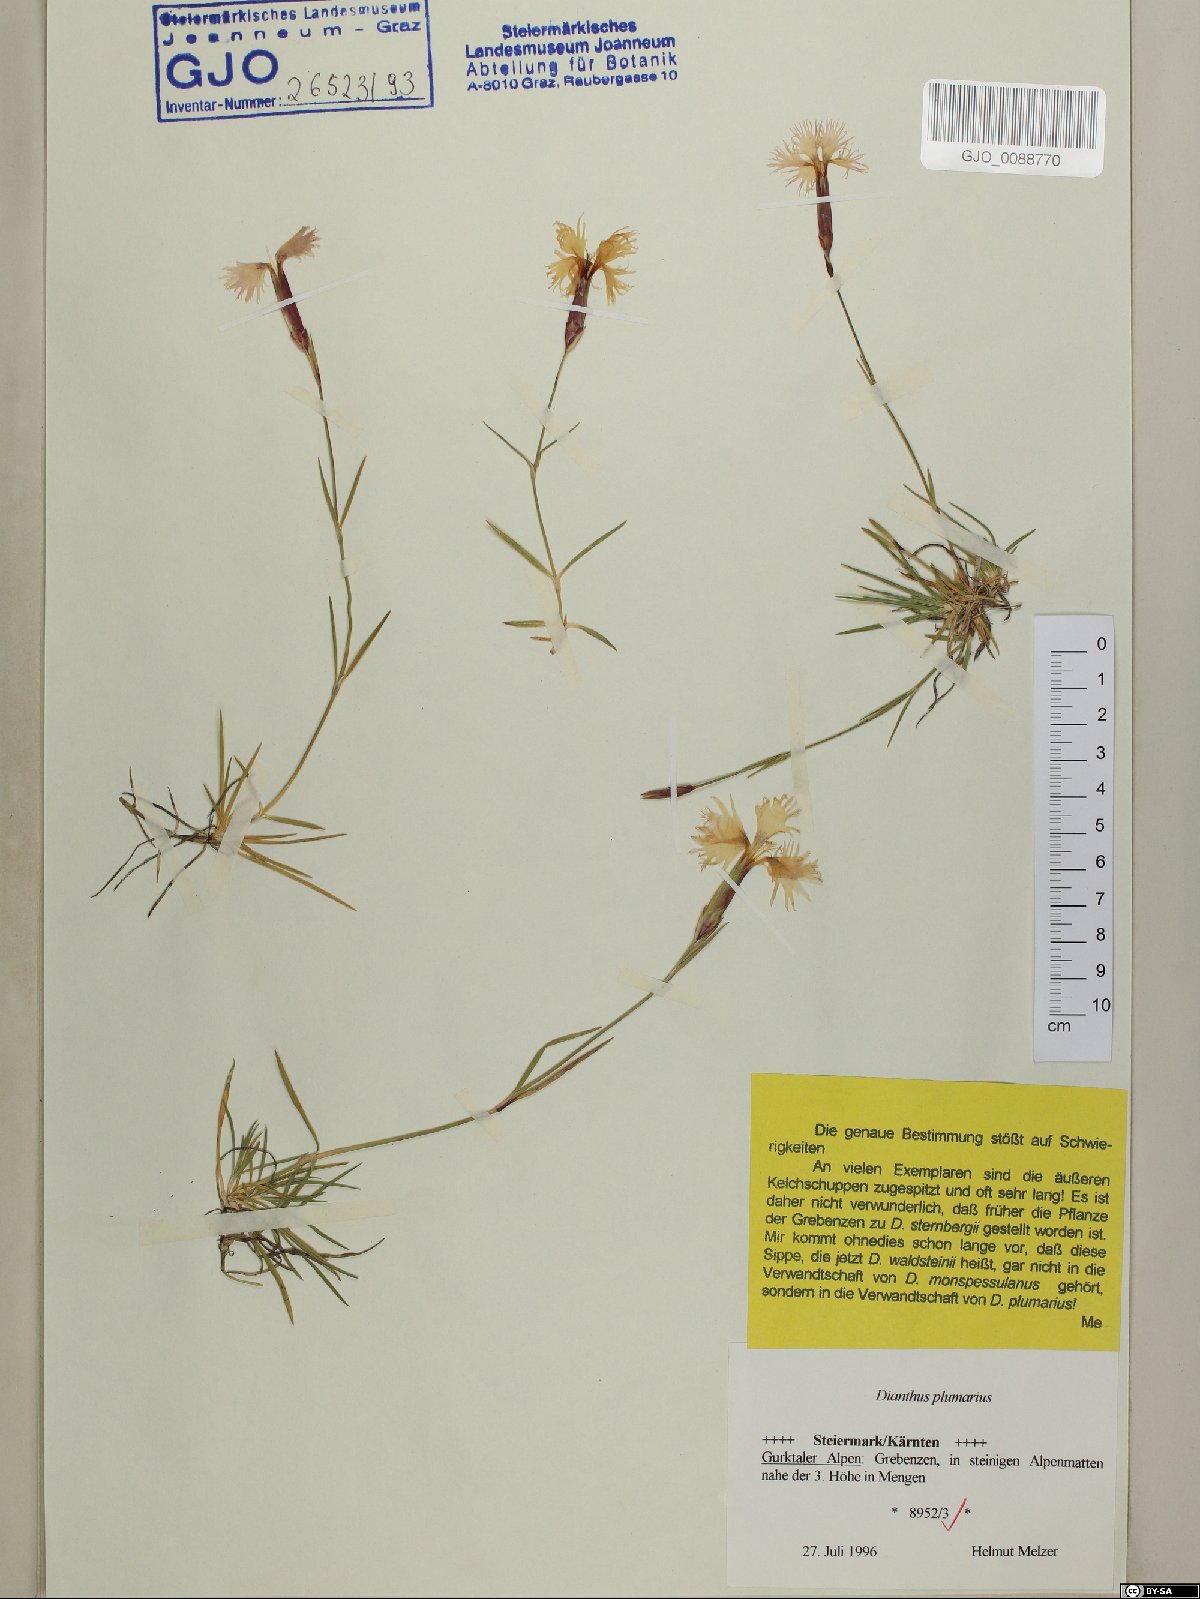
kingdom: Plantae
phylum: Tracheophyta
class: Magnoliopsida
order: Caryophyllales
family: Caryophyllaceae
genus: Dianthus
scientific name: Dianthus plumarius
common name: Pink
